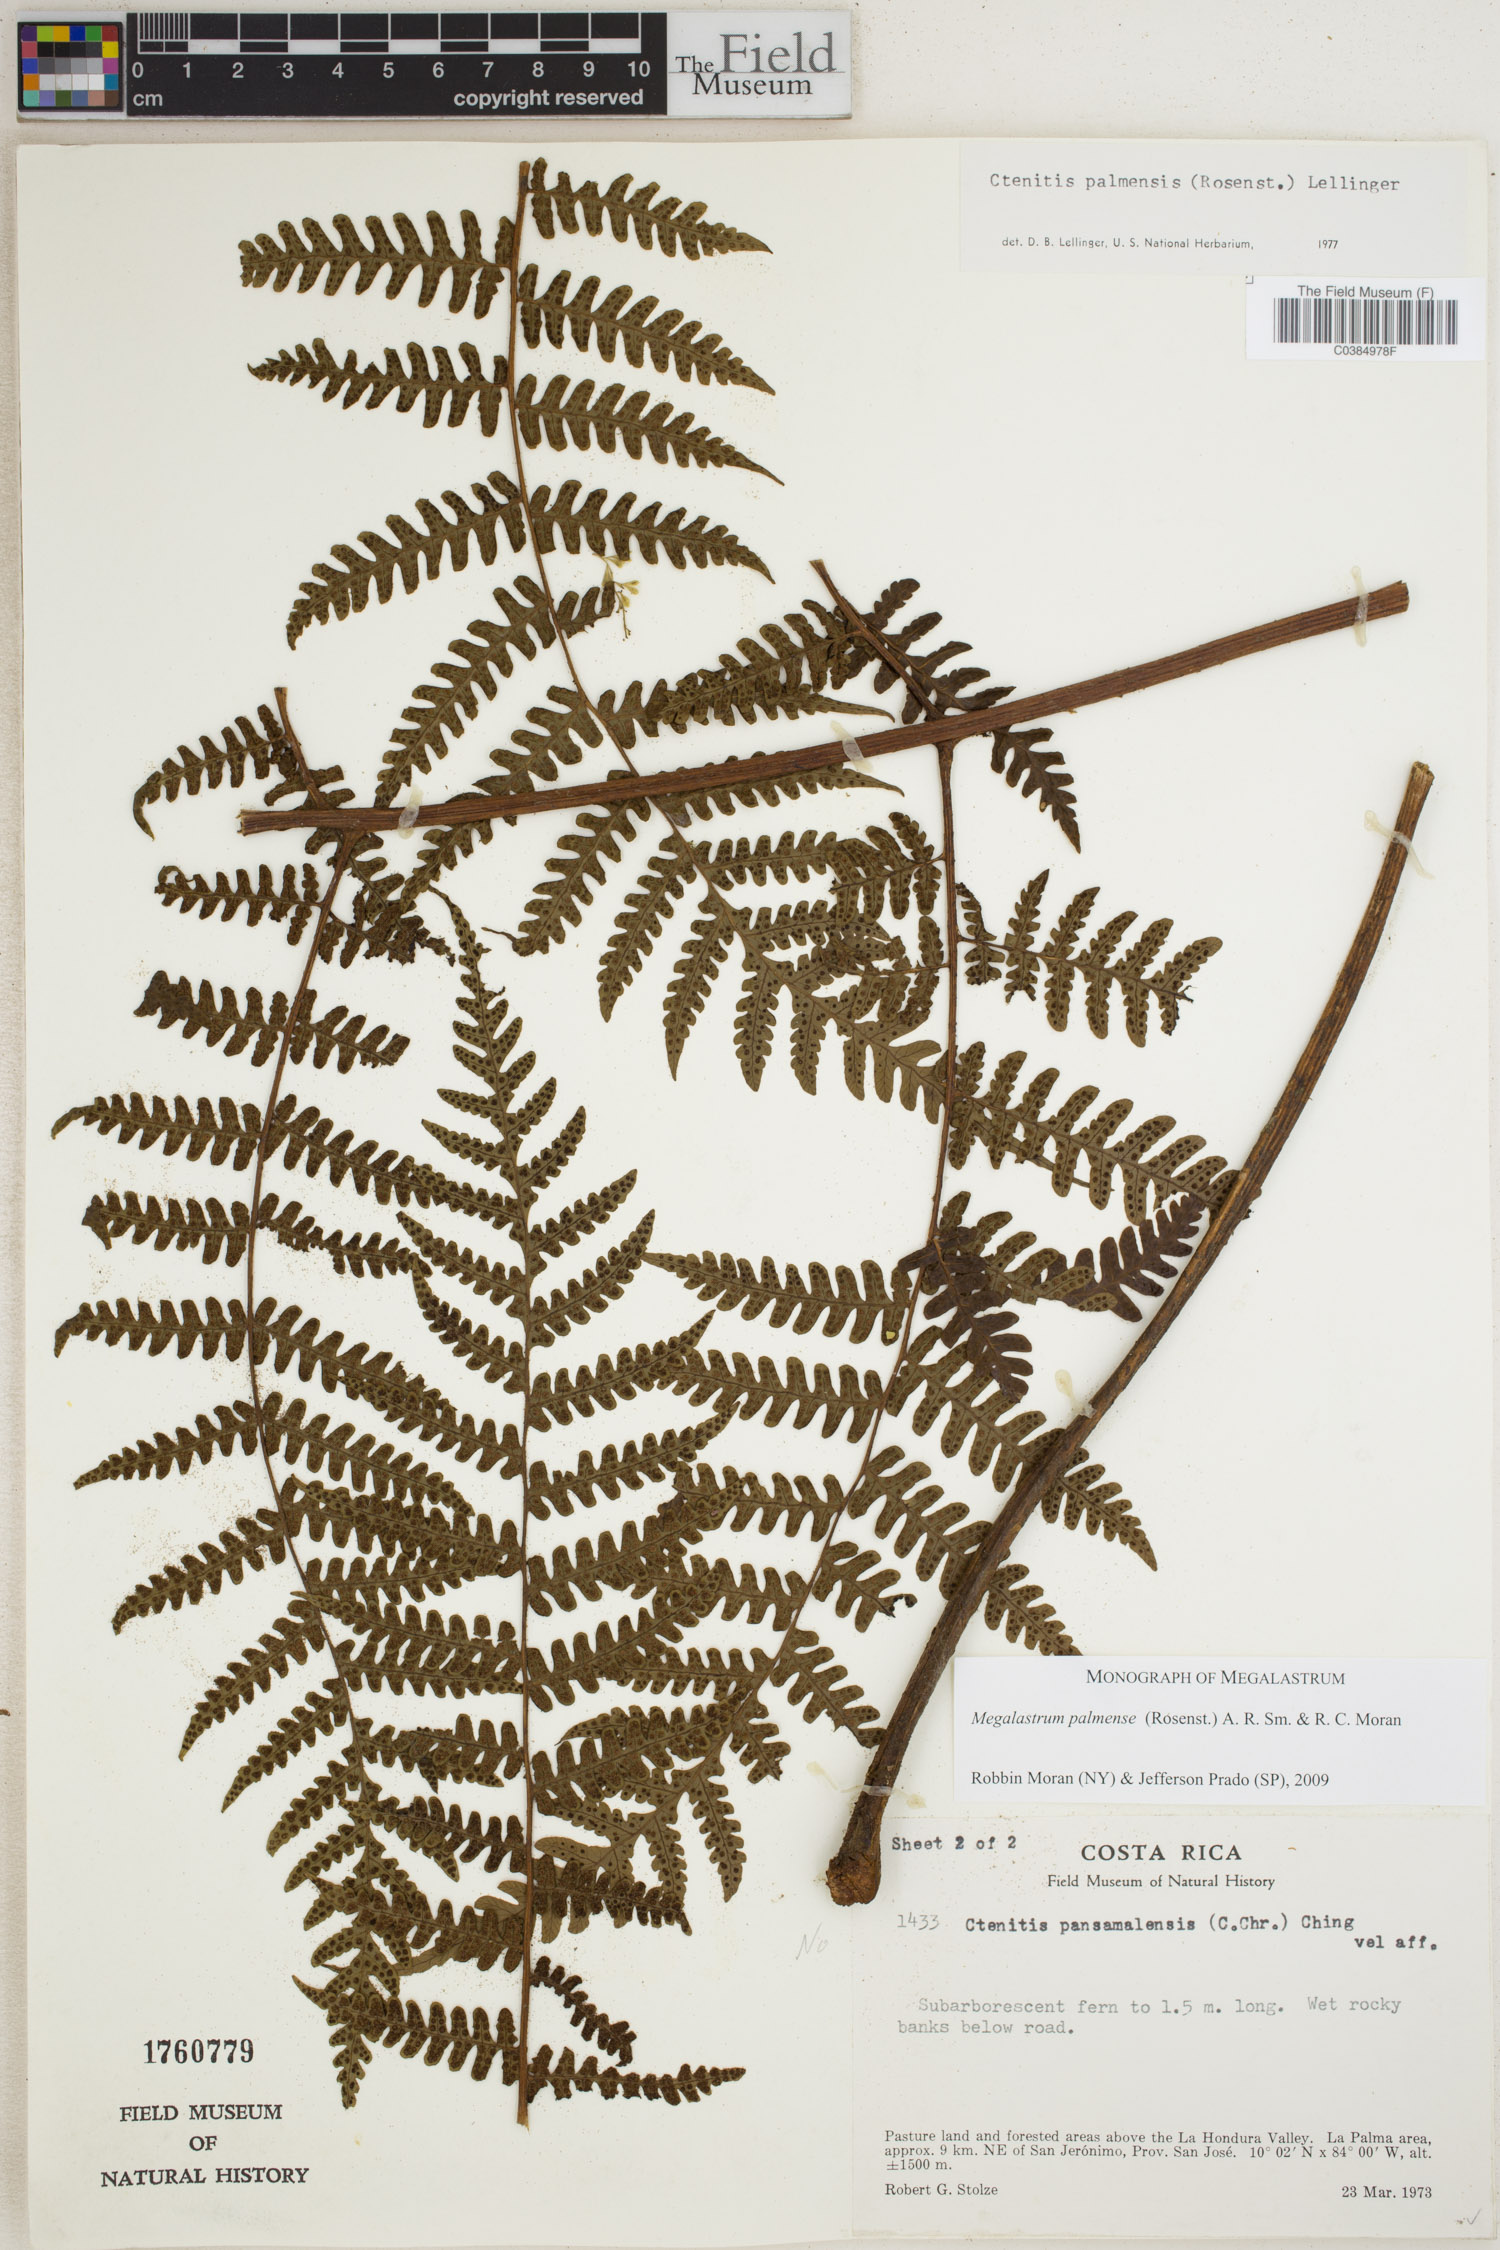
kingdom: Plantae
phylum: Tracheophyta
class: Polypodiopsida
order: Polypodiales
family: Dryopteridaceae
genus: Megalastrum
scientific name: Megalastrum palmense
